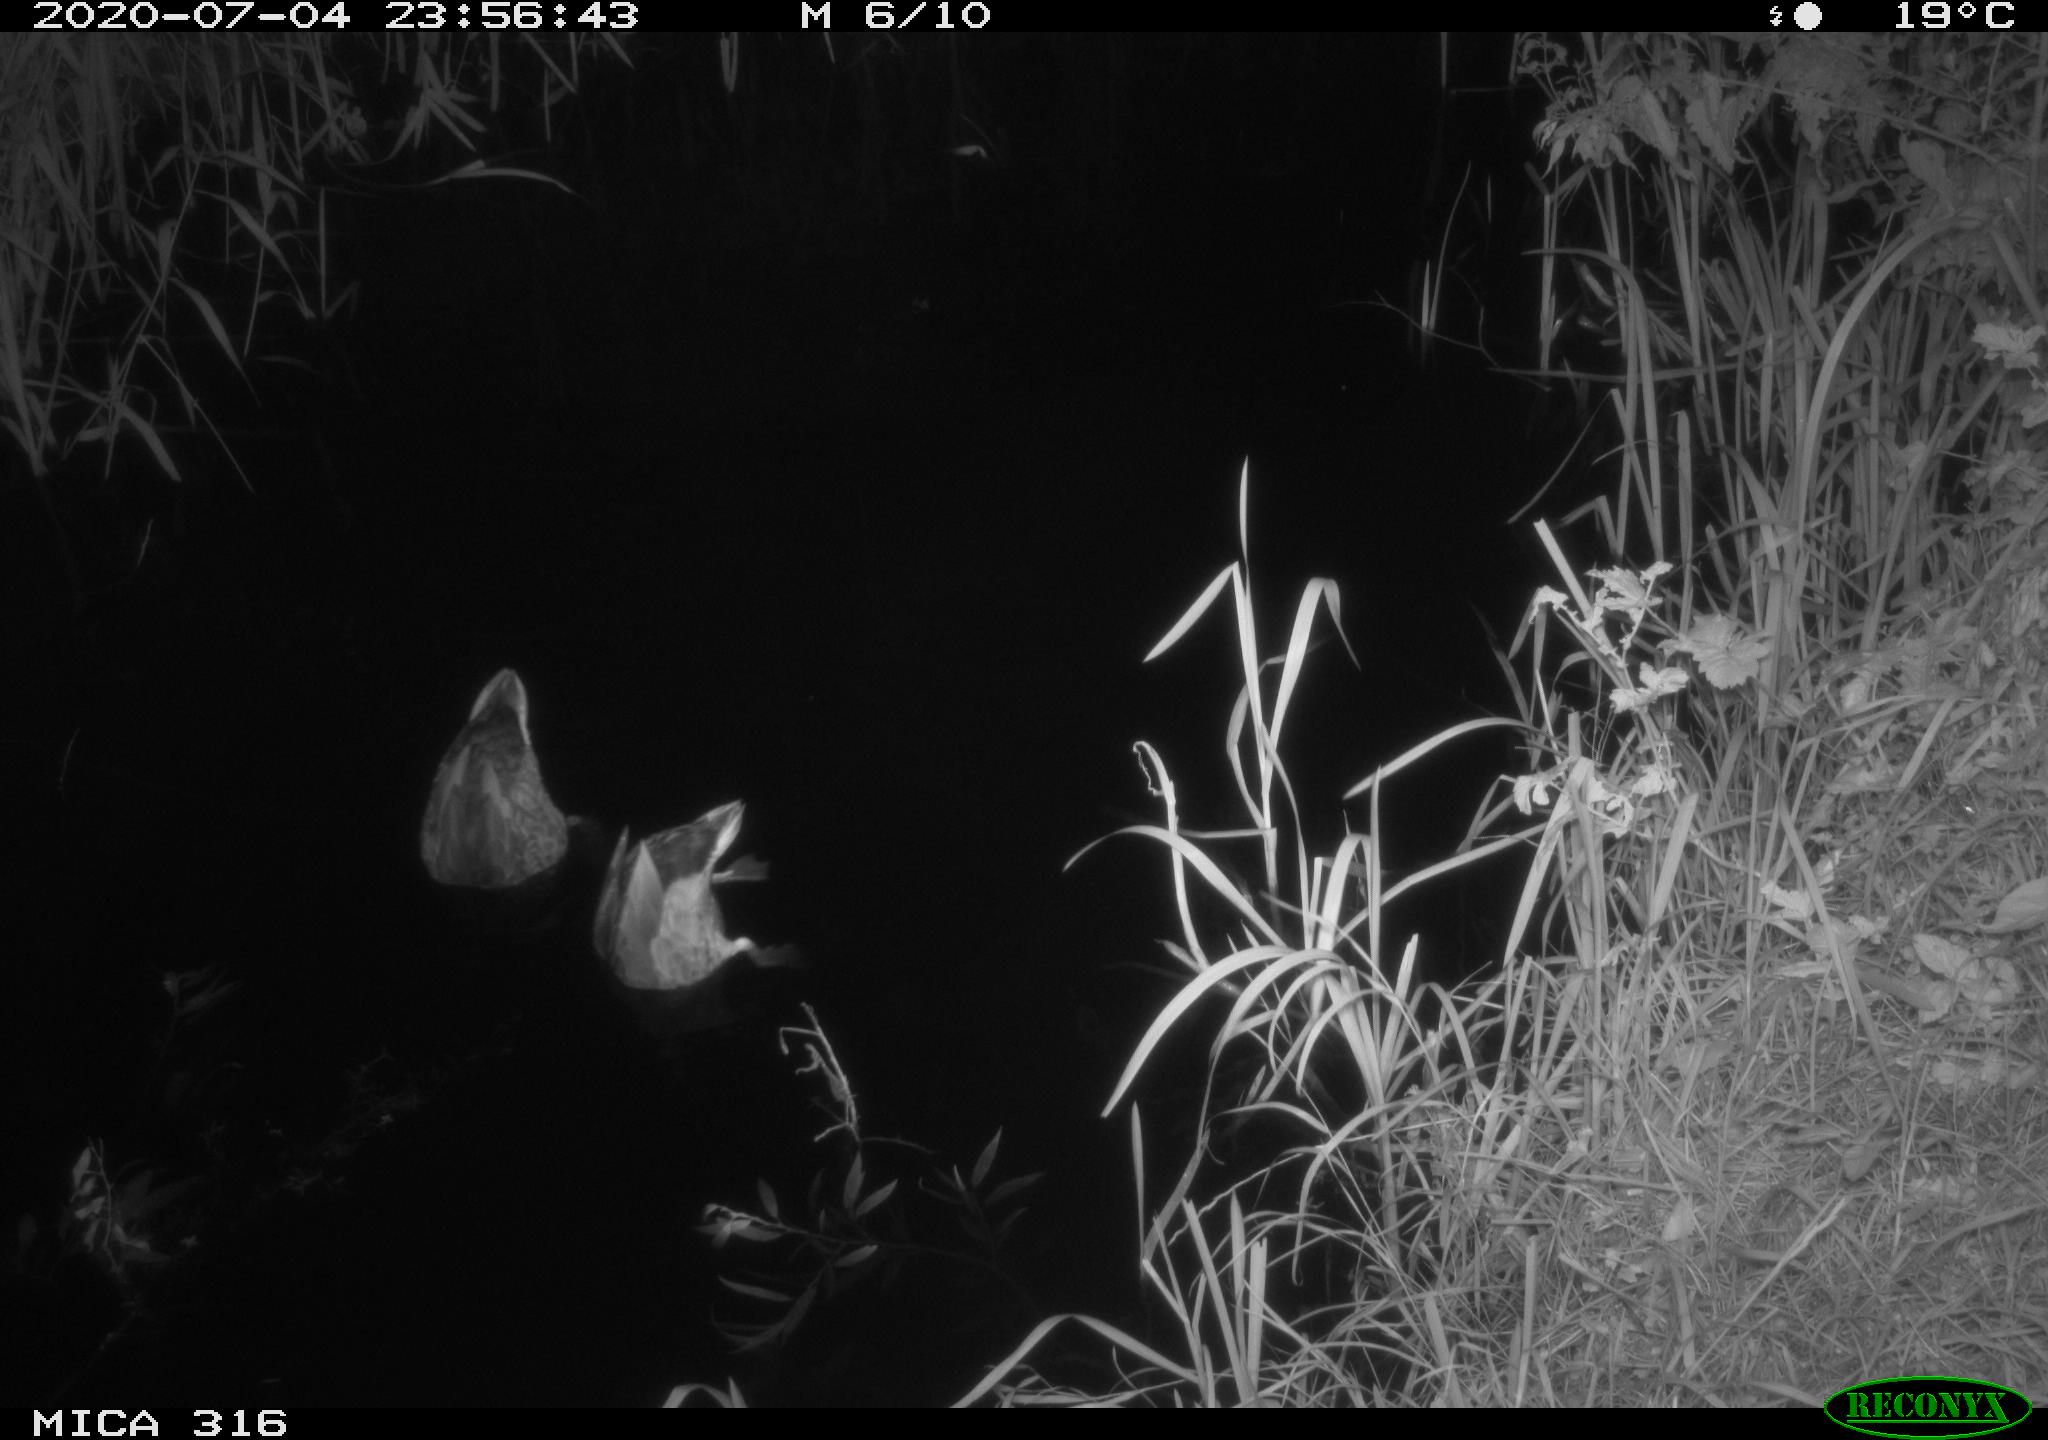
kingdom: Animalia
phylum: Chordata
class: Aves
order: Anseriformes
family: Anatidae
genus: Anas
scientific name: Anas platyrhynchos
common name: Mallard
